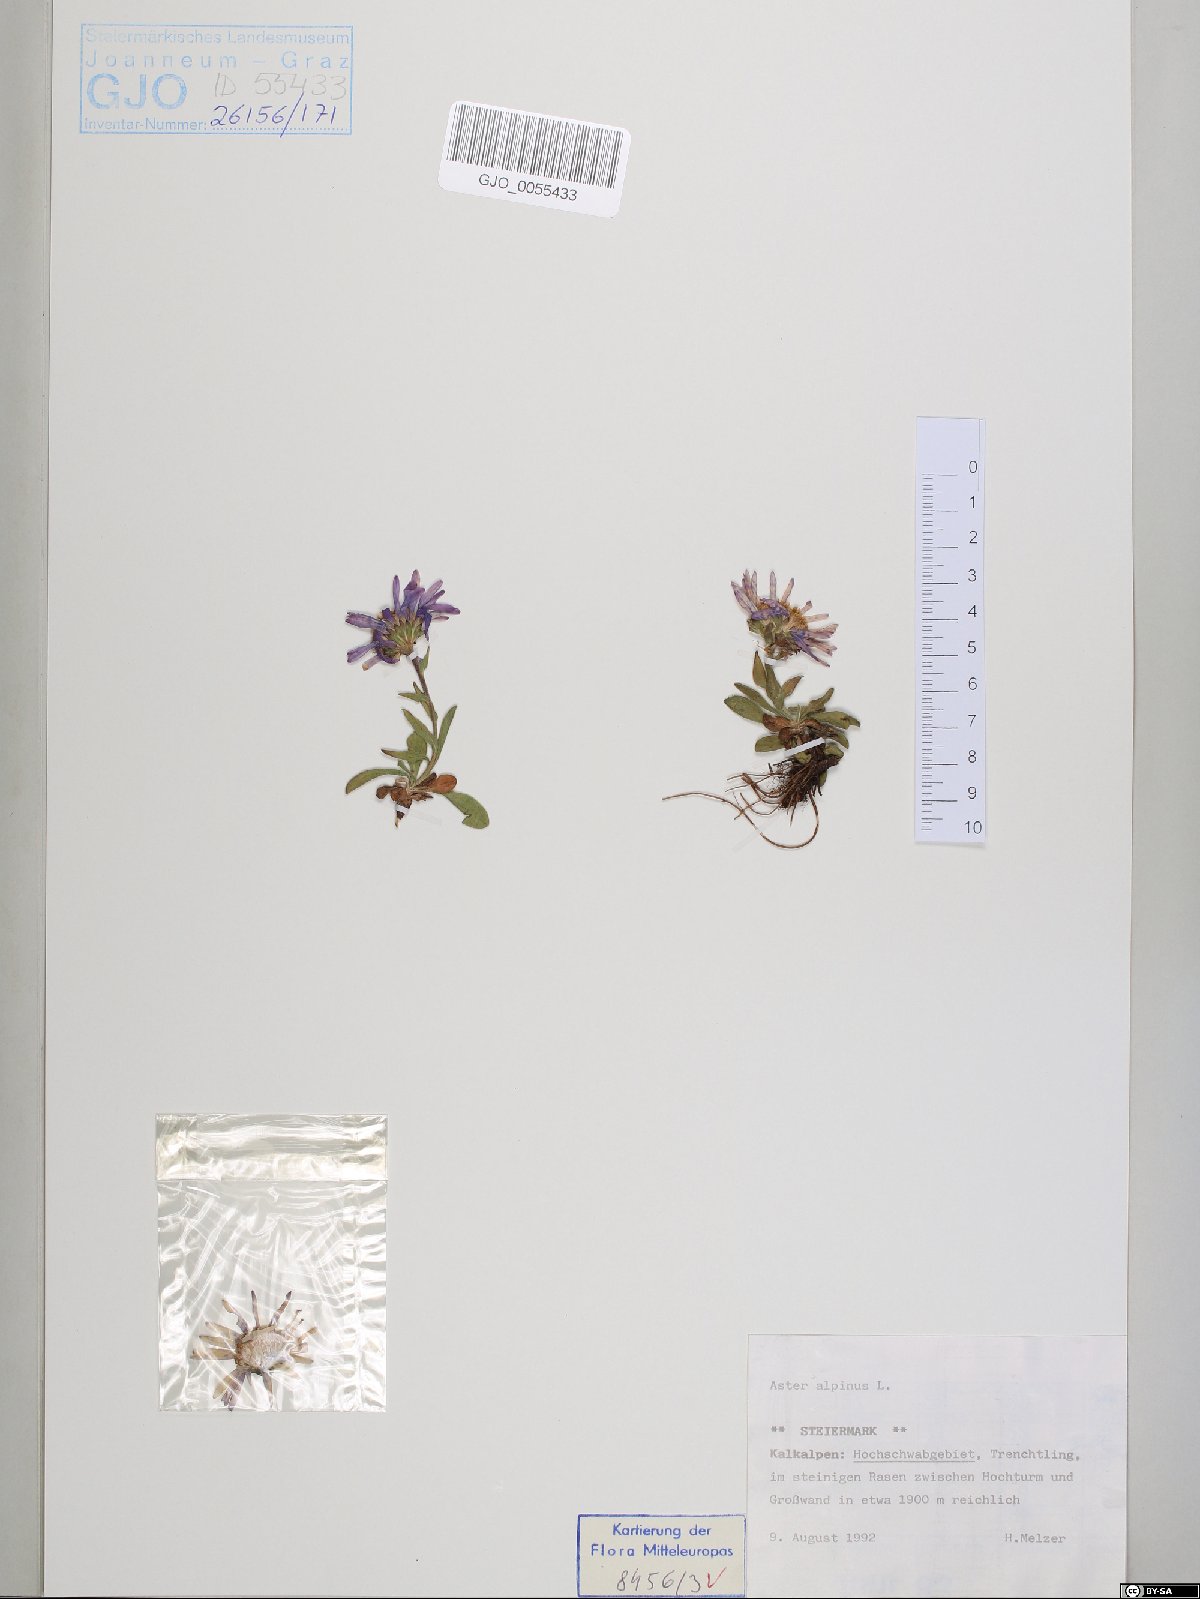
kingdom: Plantae
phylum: Tracheophyta
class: Magnoliopsida
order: Asterales
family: Asteraceae
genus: Aster
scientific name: Aster alpinus
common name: Alpine aster
